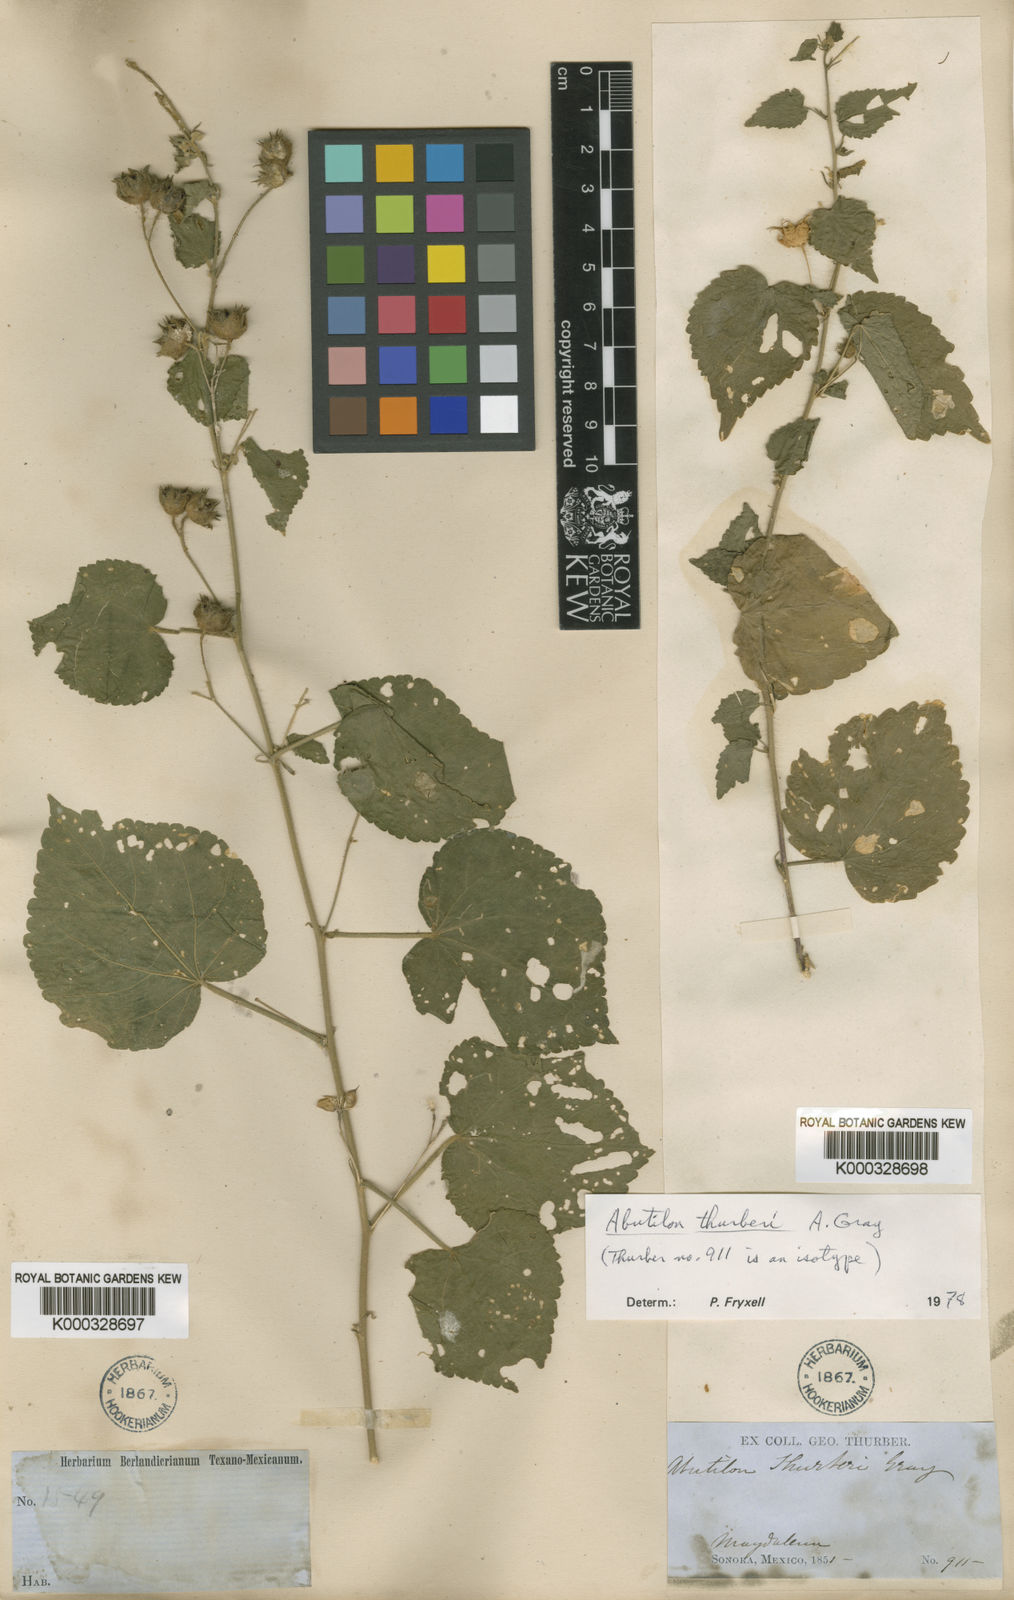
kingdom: Plantae
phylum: Tracheophyta
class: Magnoliopsida
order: Malvales
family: Malvaceae
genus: Pseudabutilon
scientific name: Pseudabutilon thurberi
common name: Thurber's indian mallow
